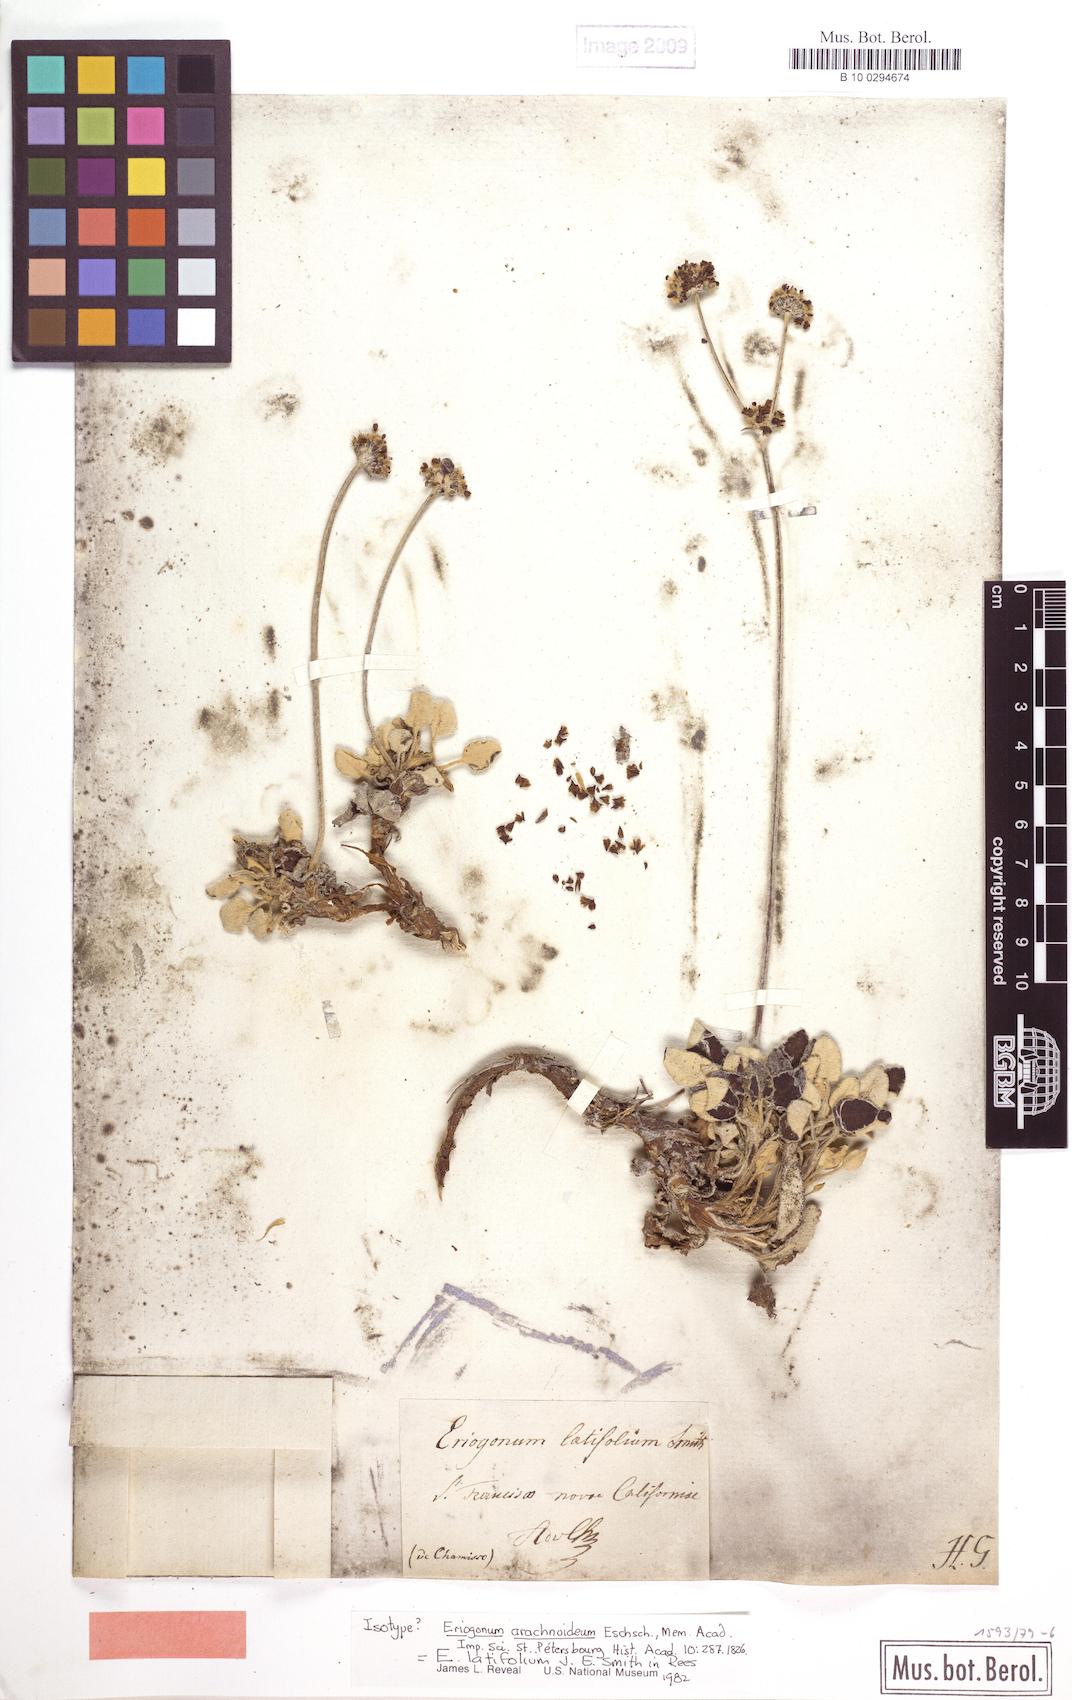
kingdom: Plantae
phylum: Tracheophyta
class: Magnoliopsida
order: Caryophyllales
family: Polygonaceae
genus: Eriogonum
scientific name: Eriogonum latifolium
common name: Seaside wild buckwheat
